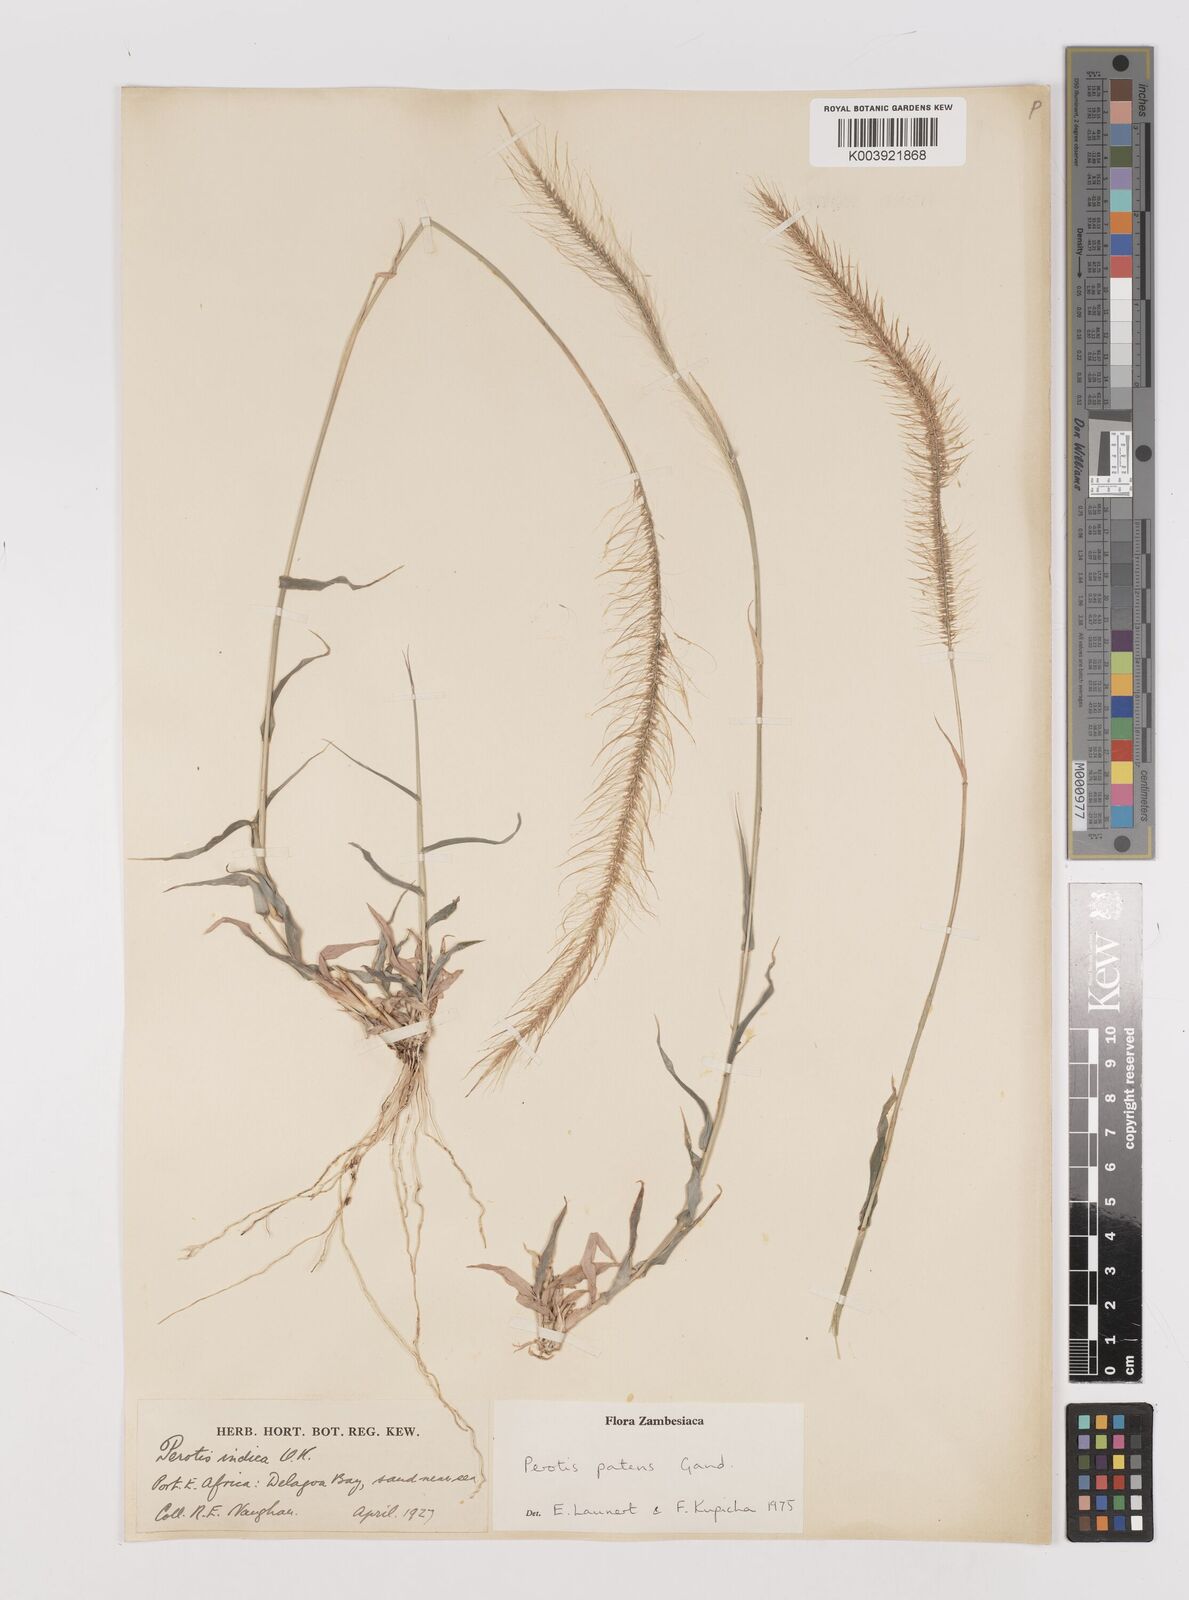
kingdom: Plantae
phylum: Tracheophyta
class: Liliopsida
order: Poales
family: Poaceae
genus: Perotis
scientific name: Perotis patens
